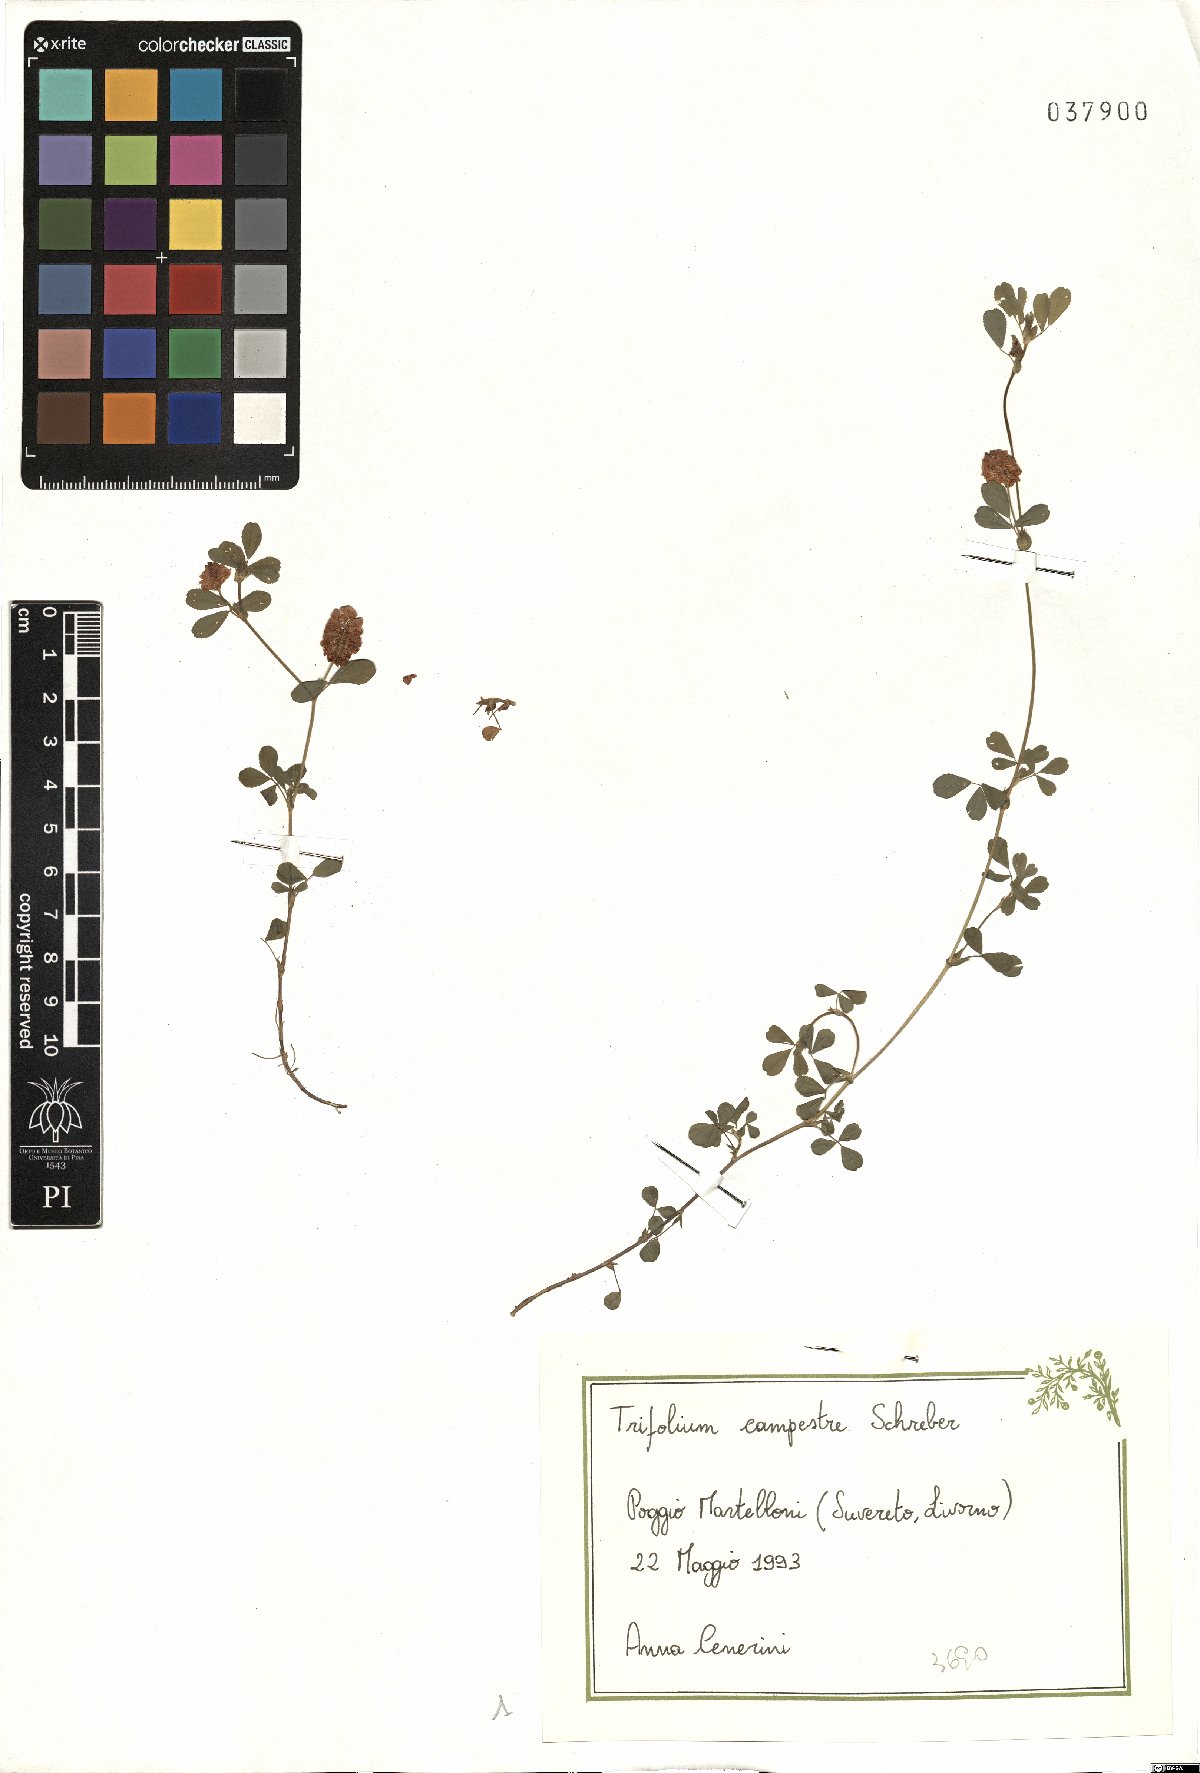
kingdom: Plantae
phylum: Tracheophyta
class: Magnoliopsida
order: Fabales
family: Fabaceae
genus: Trifolium
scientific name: Trifolium campestre
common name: Field clover
